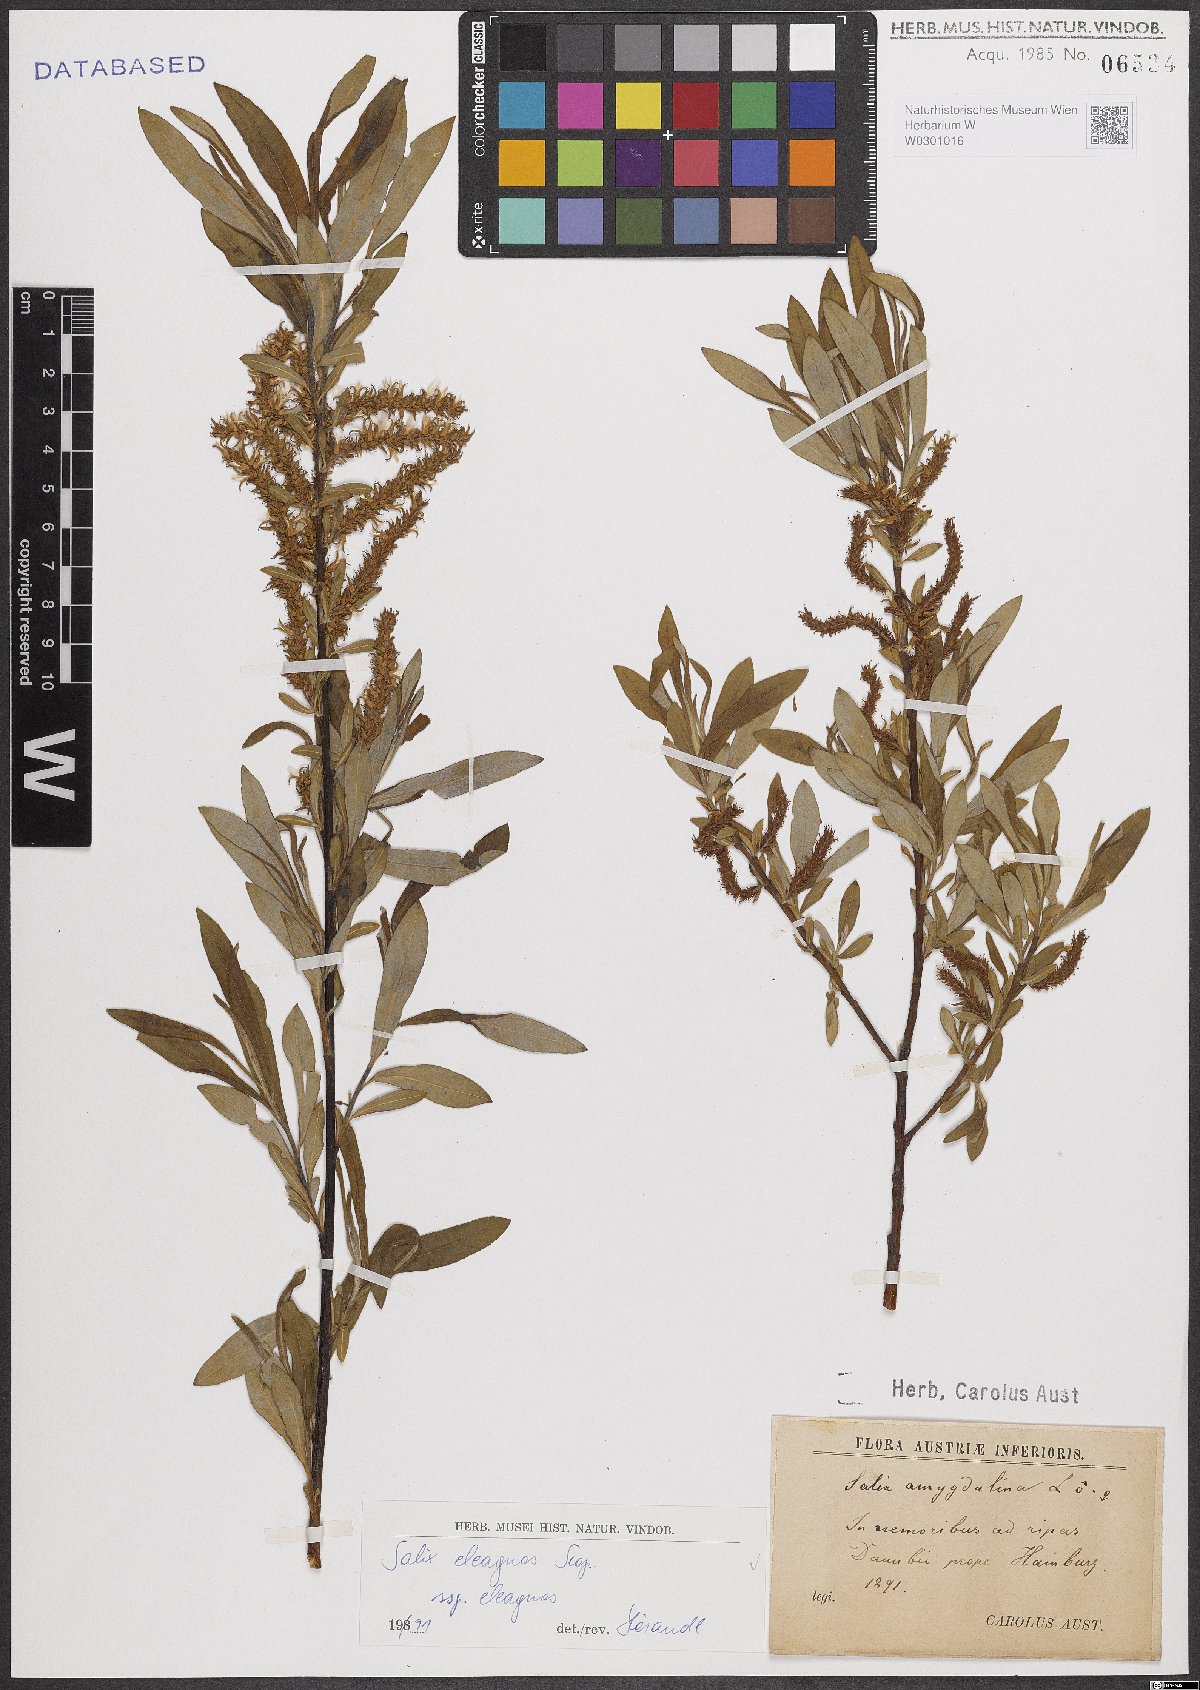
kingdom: Plantae
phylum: Tracheophyta
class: Magnoliopsida
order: Malpighiales
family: Salicaceae
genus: Salix
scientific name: Salix eleagnos
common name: Elaeagnus willow
